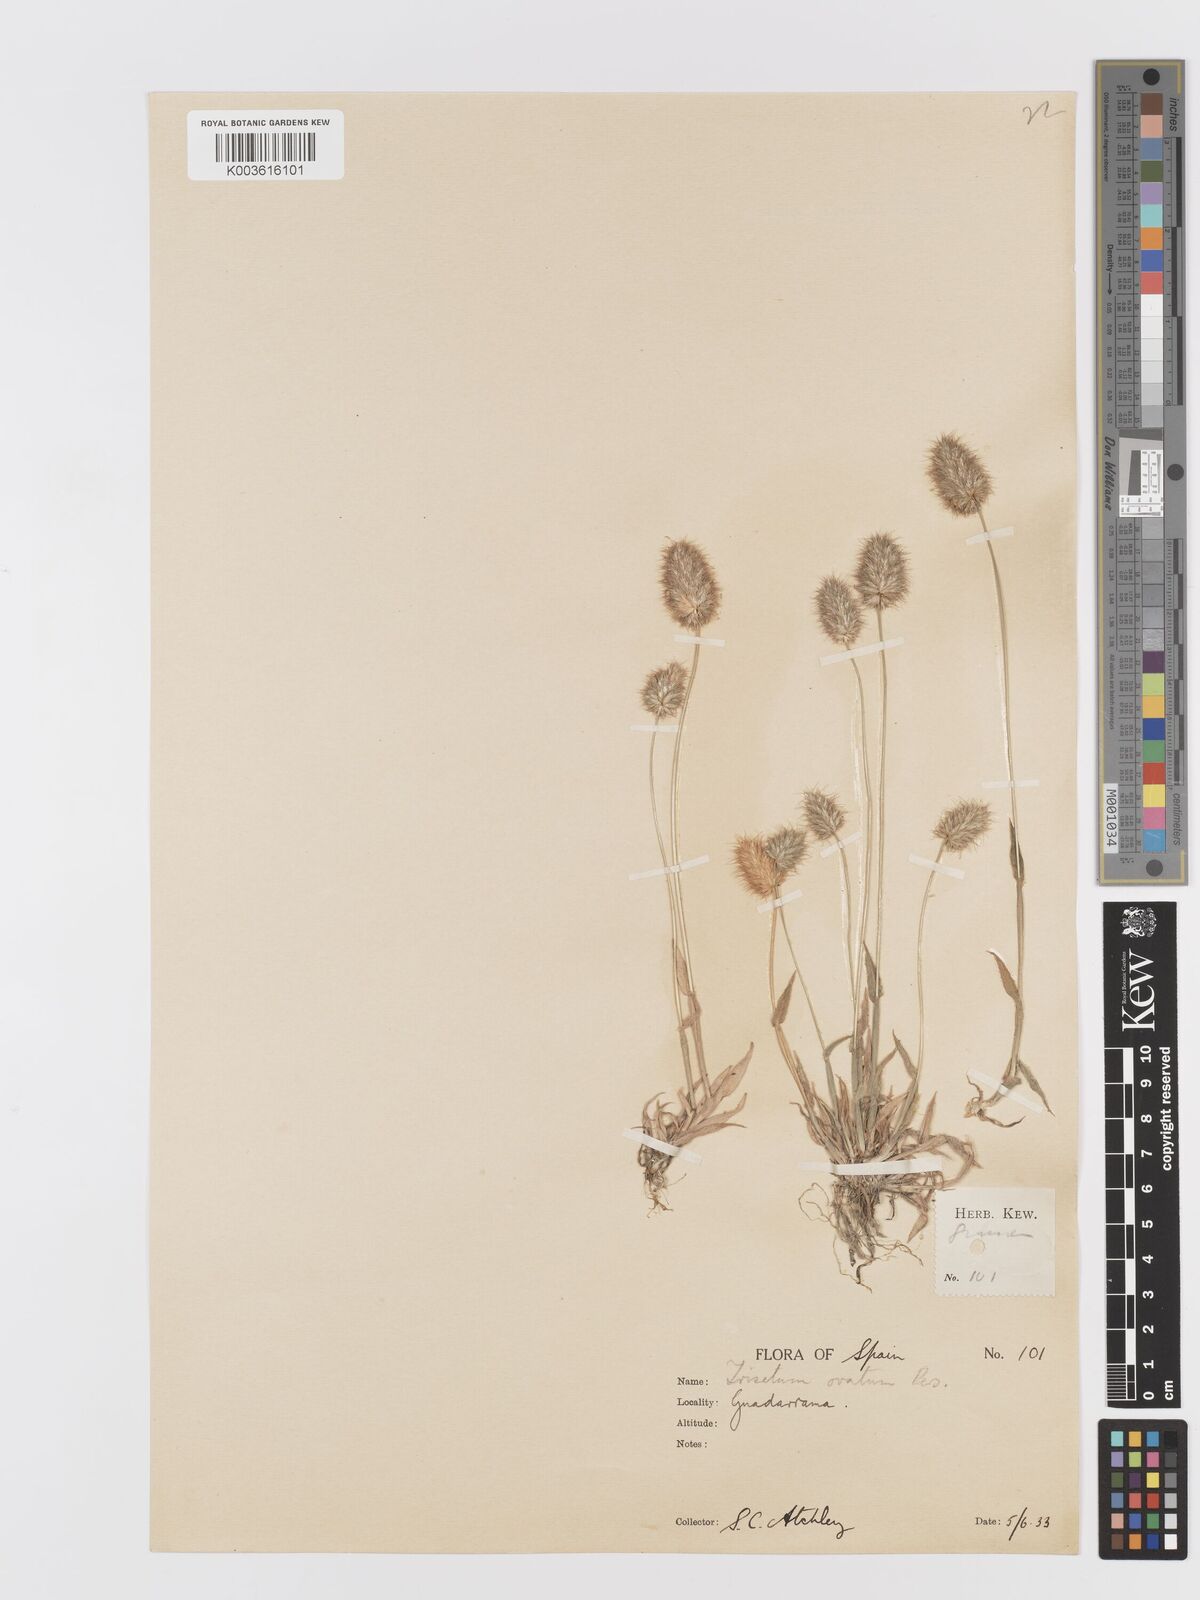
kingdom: Plantae
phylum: Tracheophyta
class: Liliopsida
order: Poales
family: Poaceae
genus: Trisetaria
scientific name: Trisetaria ovata
